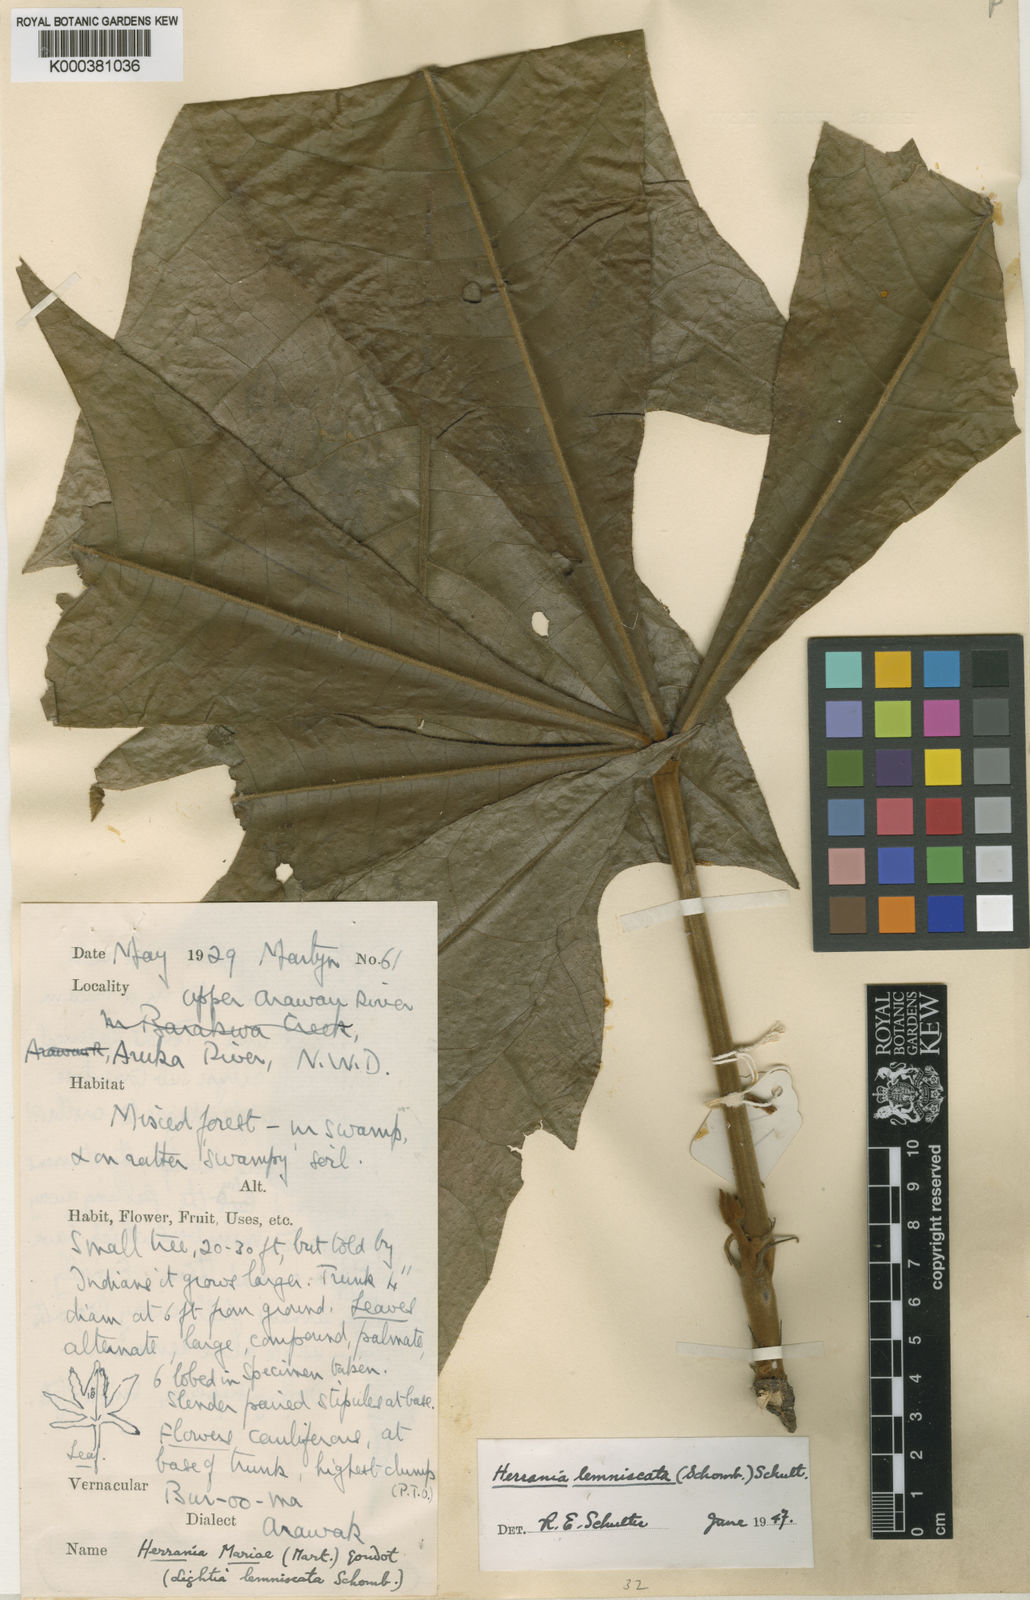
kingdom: Plantae
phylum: Tracheophyta
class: Magnoliopsida
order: Malvales
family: Malvaceae
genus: Herrania
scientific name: Herrania mariae
